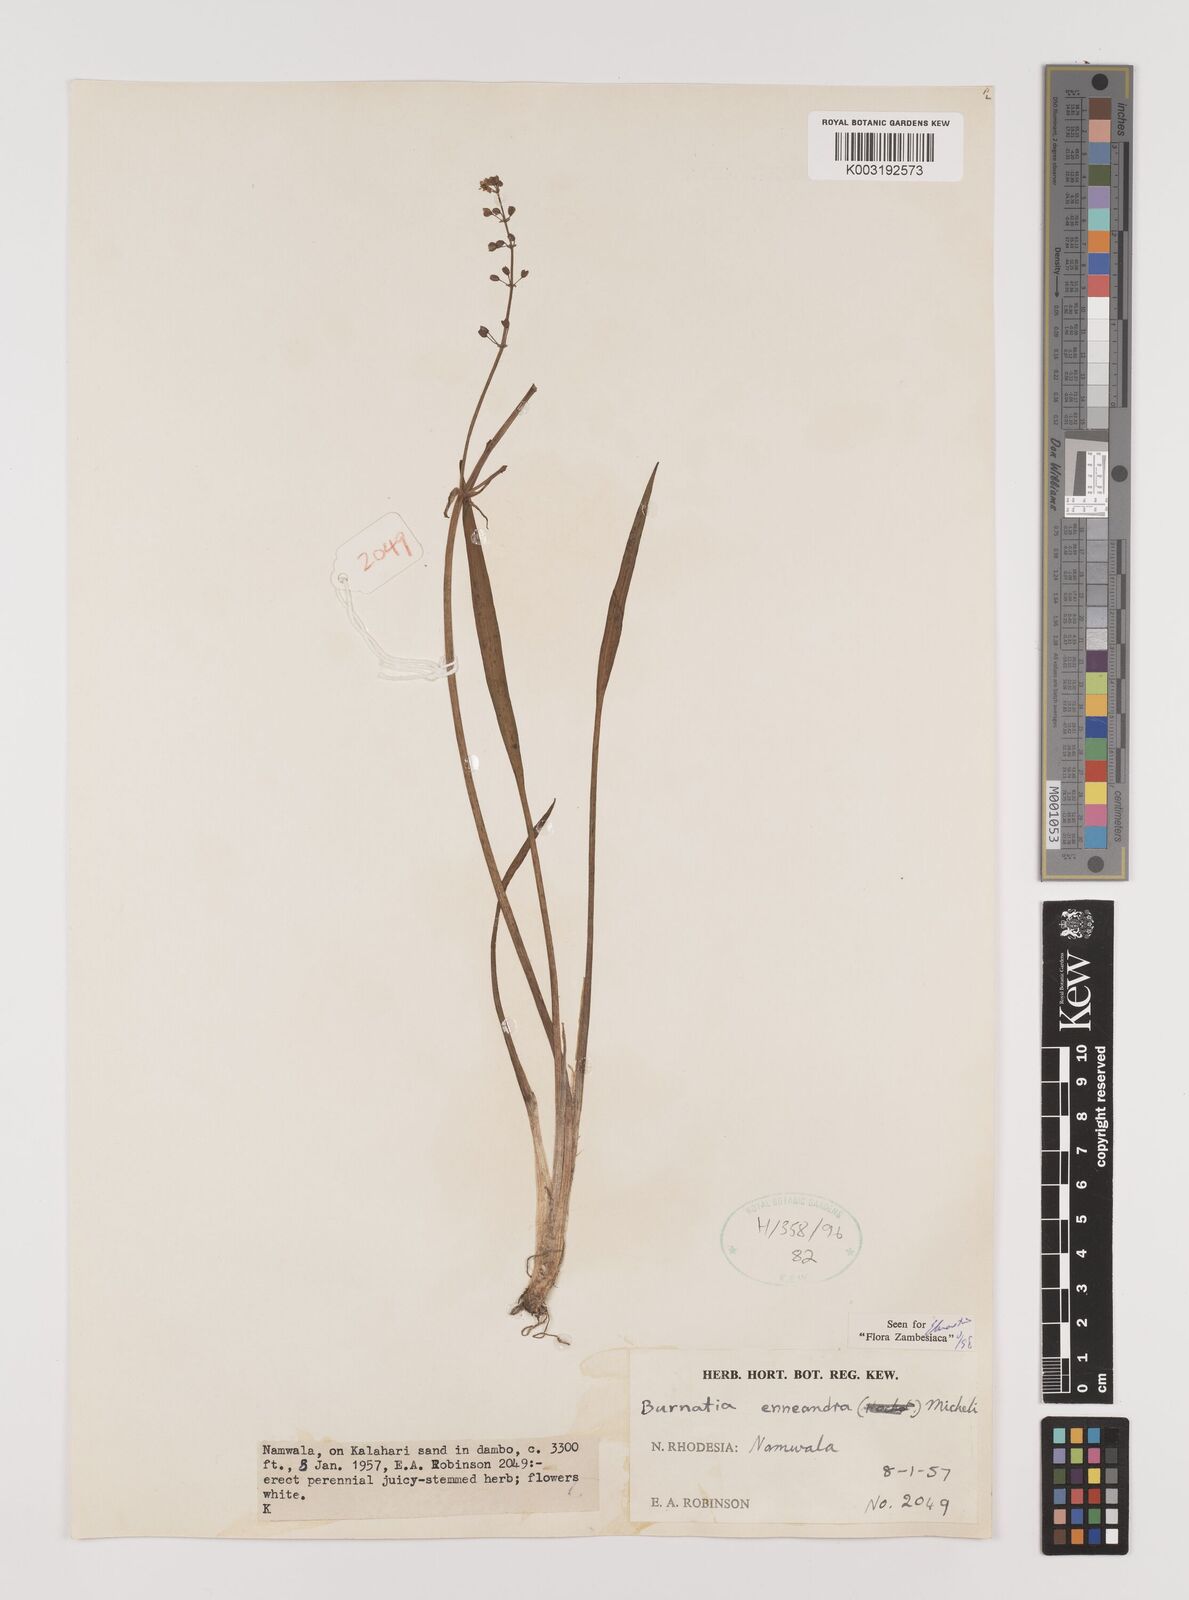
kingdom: Plantae
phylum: Tracheophyta
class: Liliopsida
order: Alismatales
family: Alismataceae
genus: Burnatia
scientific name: Burnatia enneandra
